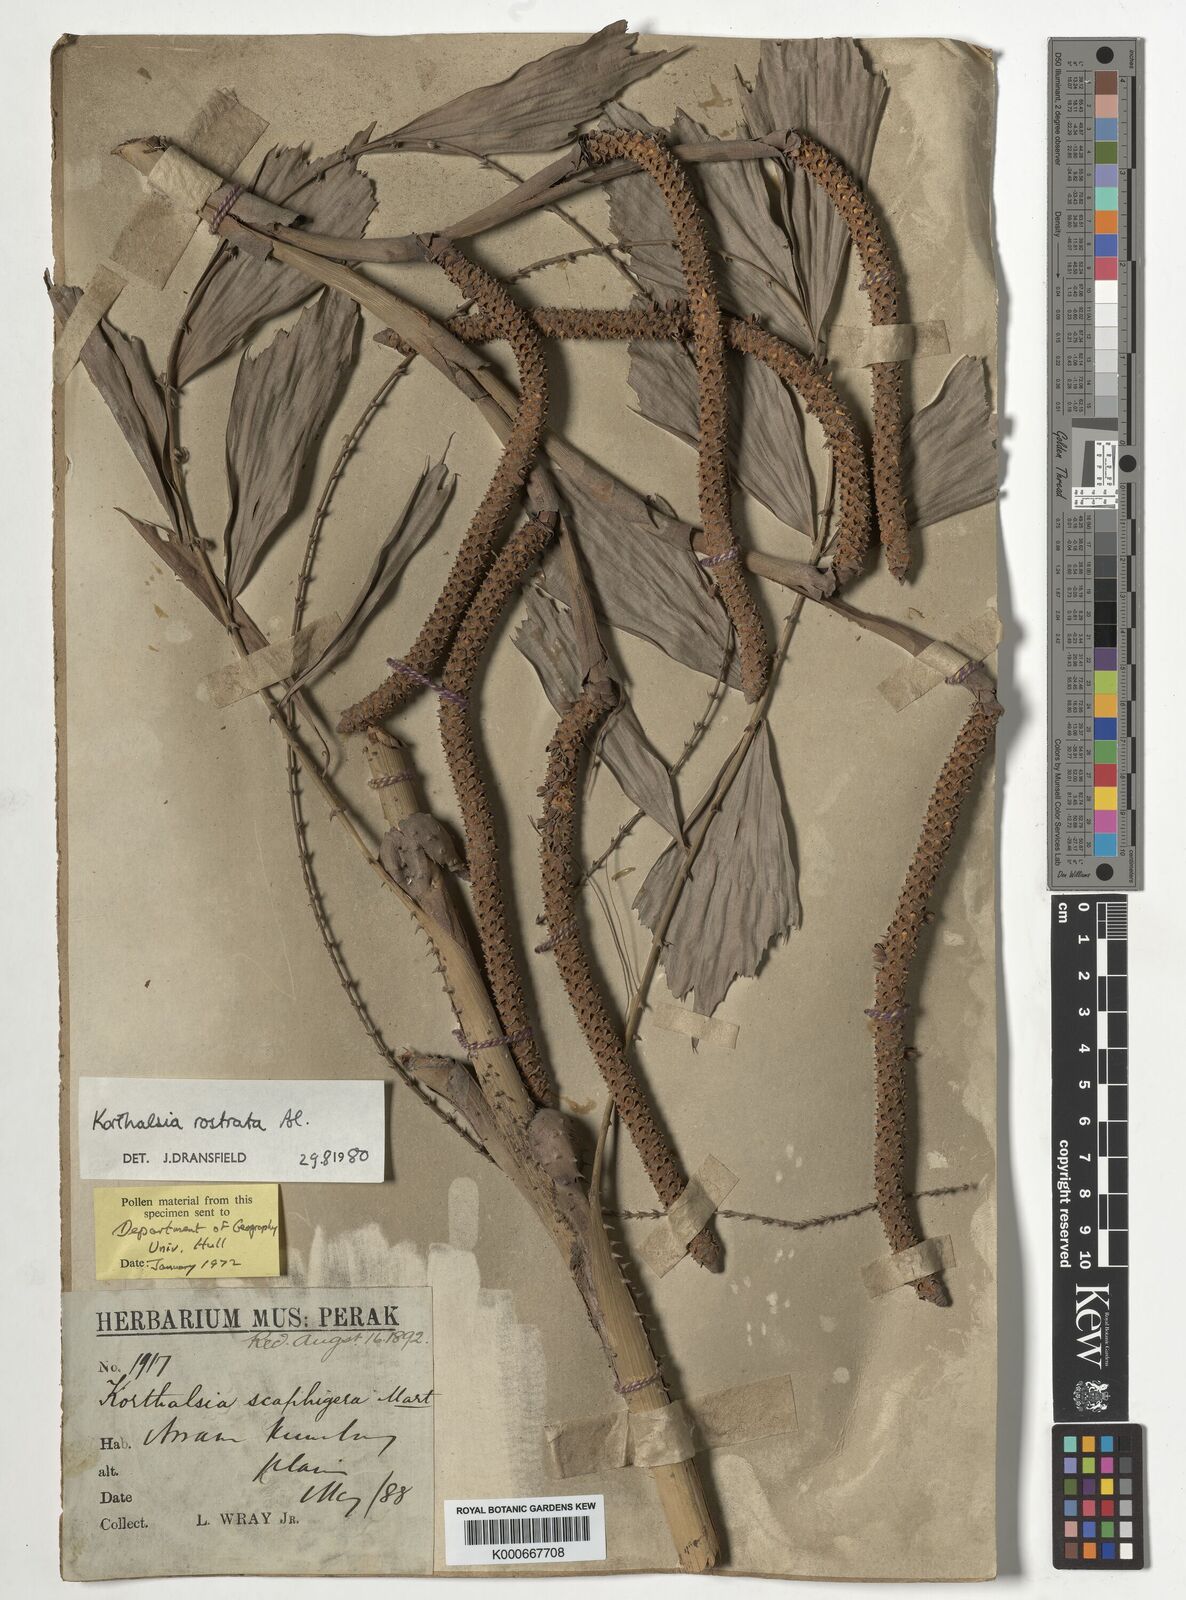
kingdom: Plantae
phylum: Tracheophyta
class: Liliopsida
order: Arecales
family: Arecaceae
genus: Korthalsia
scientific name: Korthalsia rostrata
